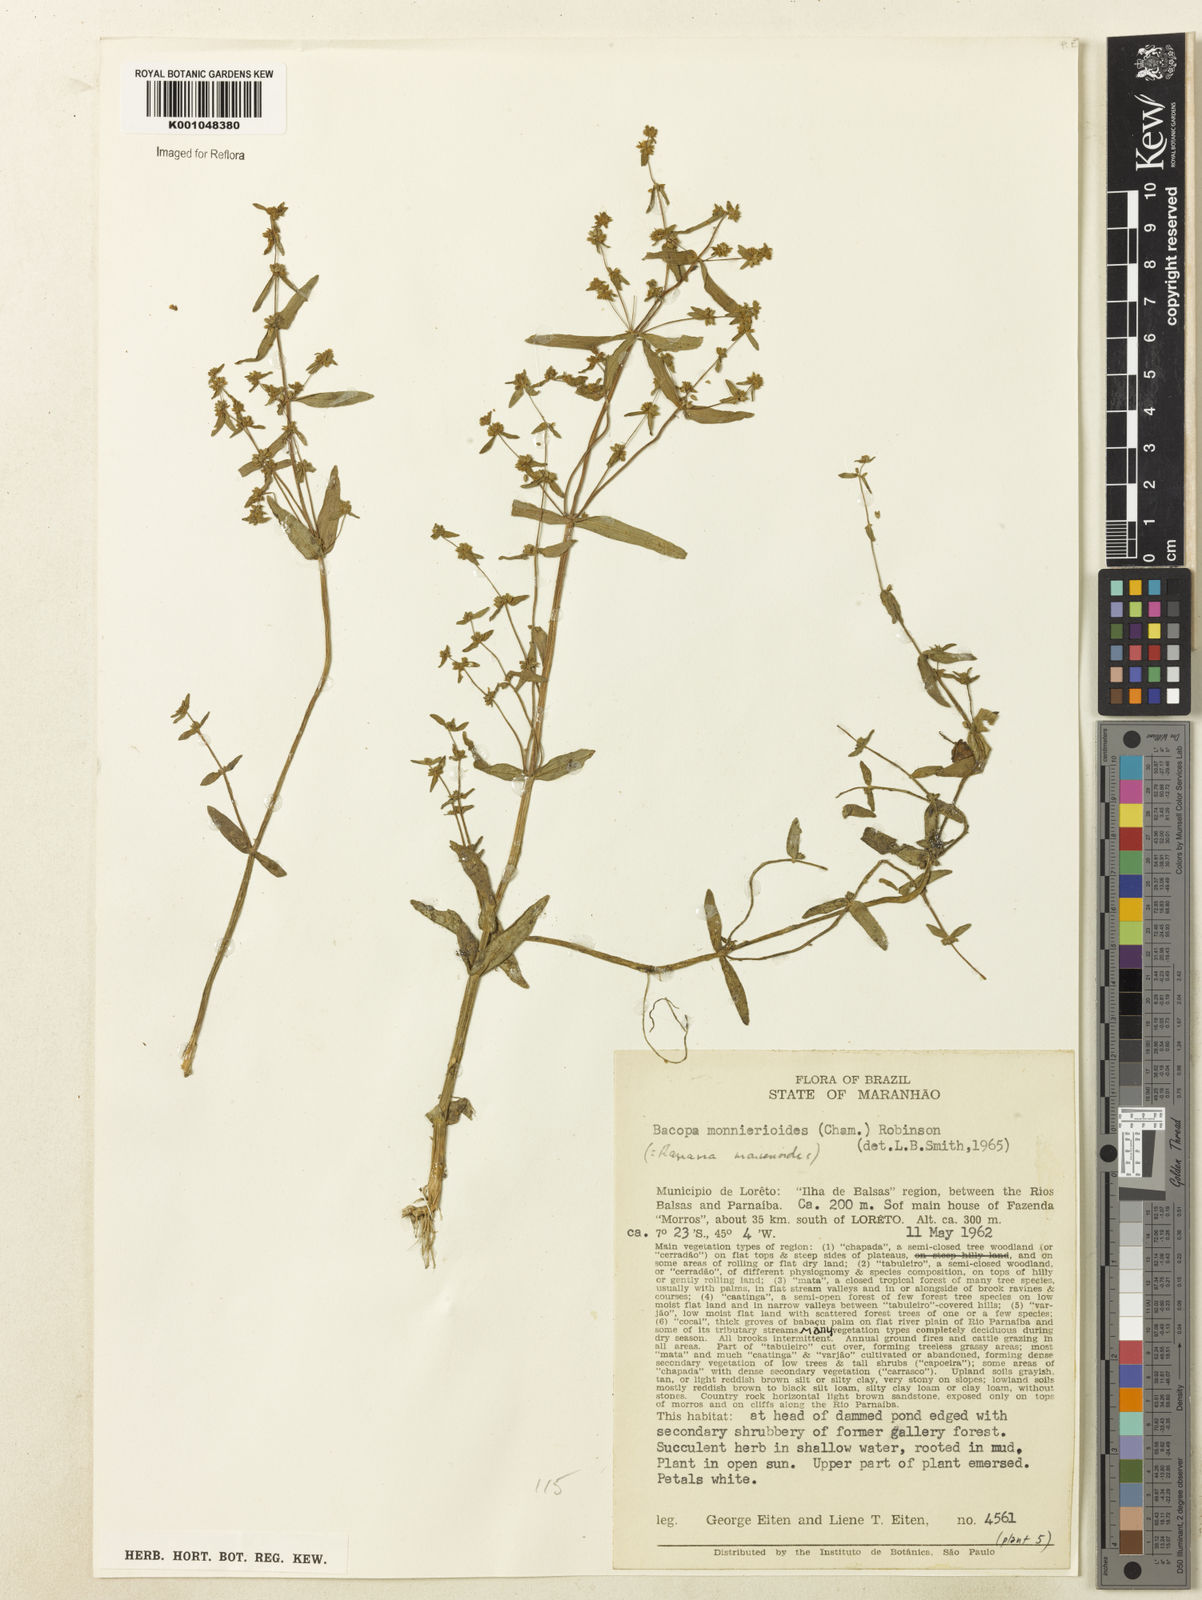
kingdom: Plantae
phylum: Tracheophyta
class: Magnoliopsida
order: Lamiales
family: Plantaginaceae
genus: Bacopa
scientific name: Bacopa monnierioides
